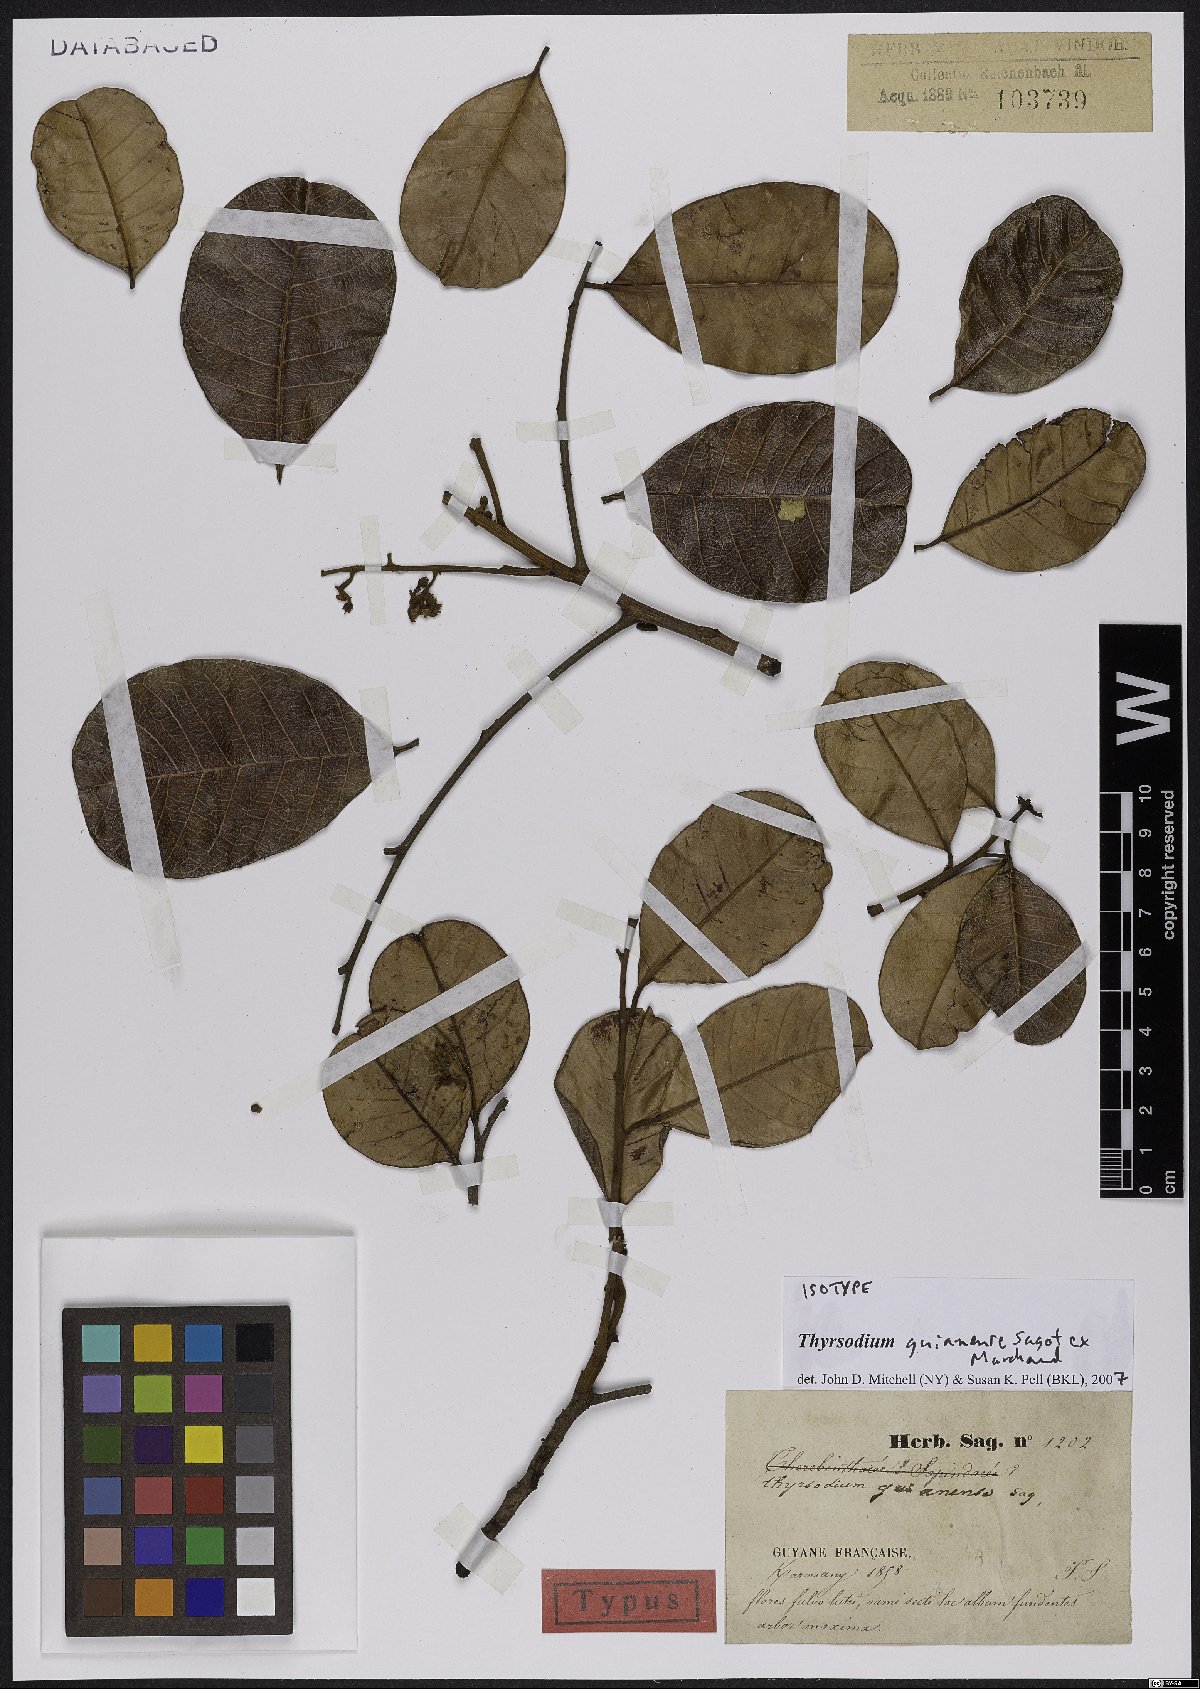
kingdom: Plantae
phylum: Tracheophyta
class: Magnoliopsida
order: Sapindales
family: Anacardiaceae
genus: Thyrsodium
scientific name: Thyrsodium guianense
